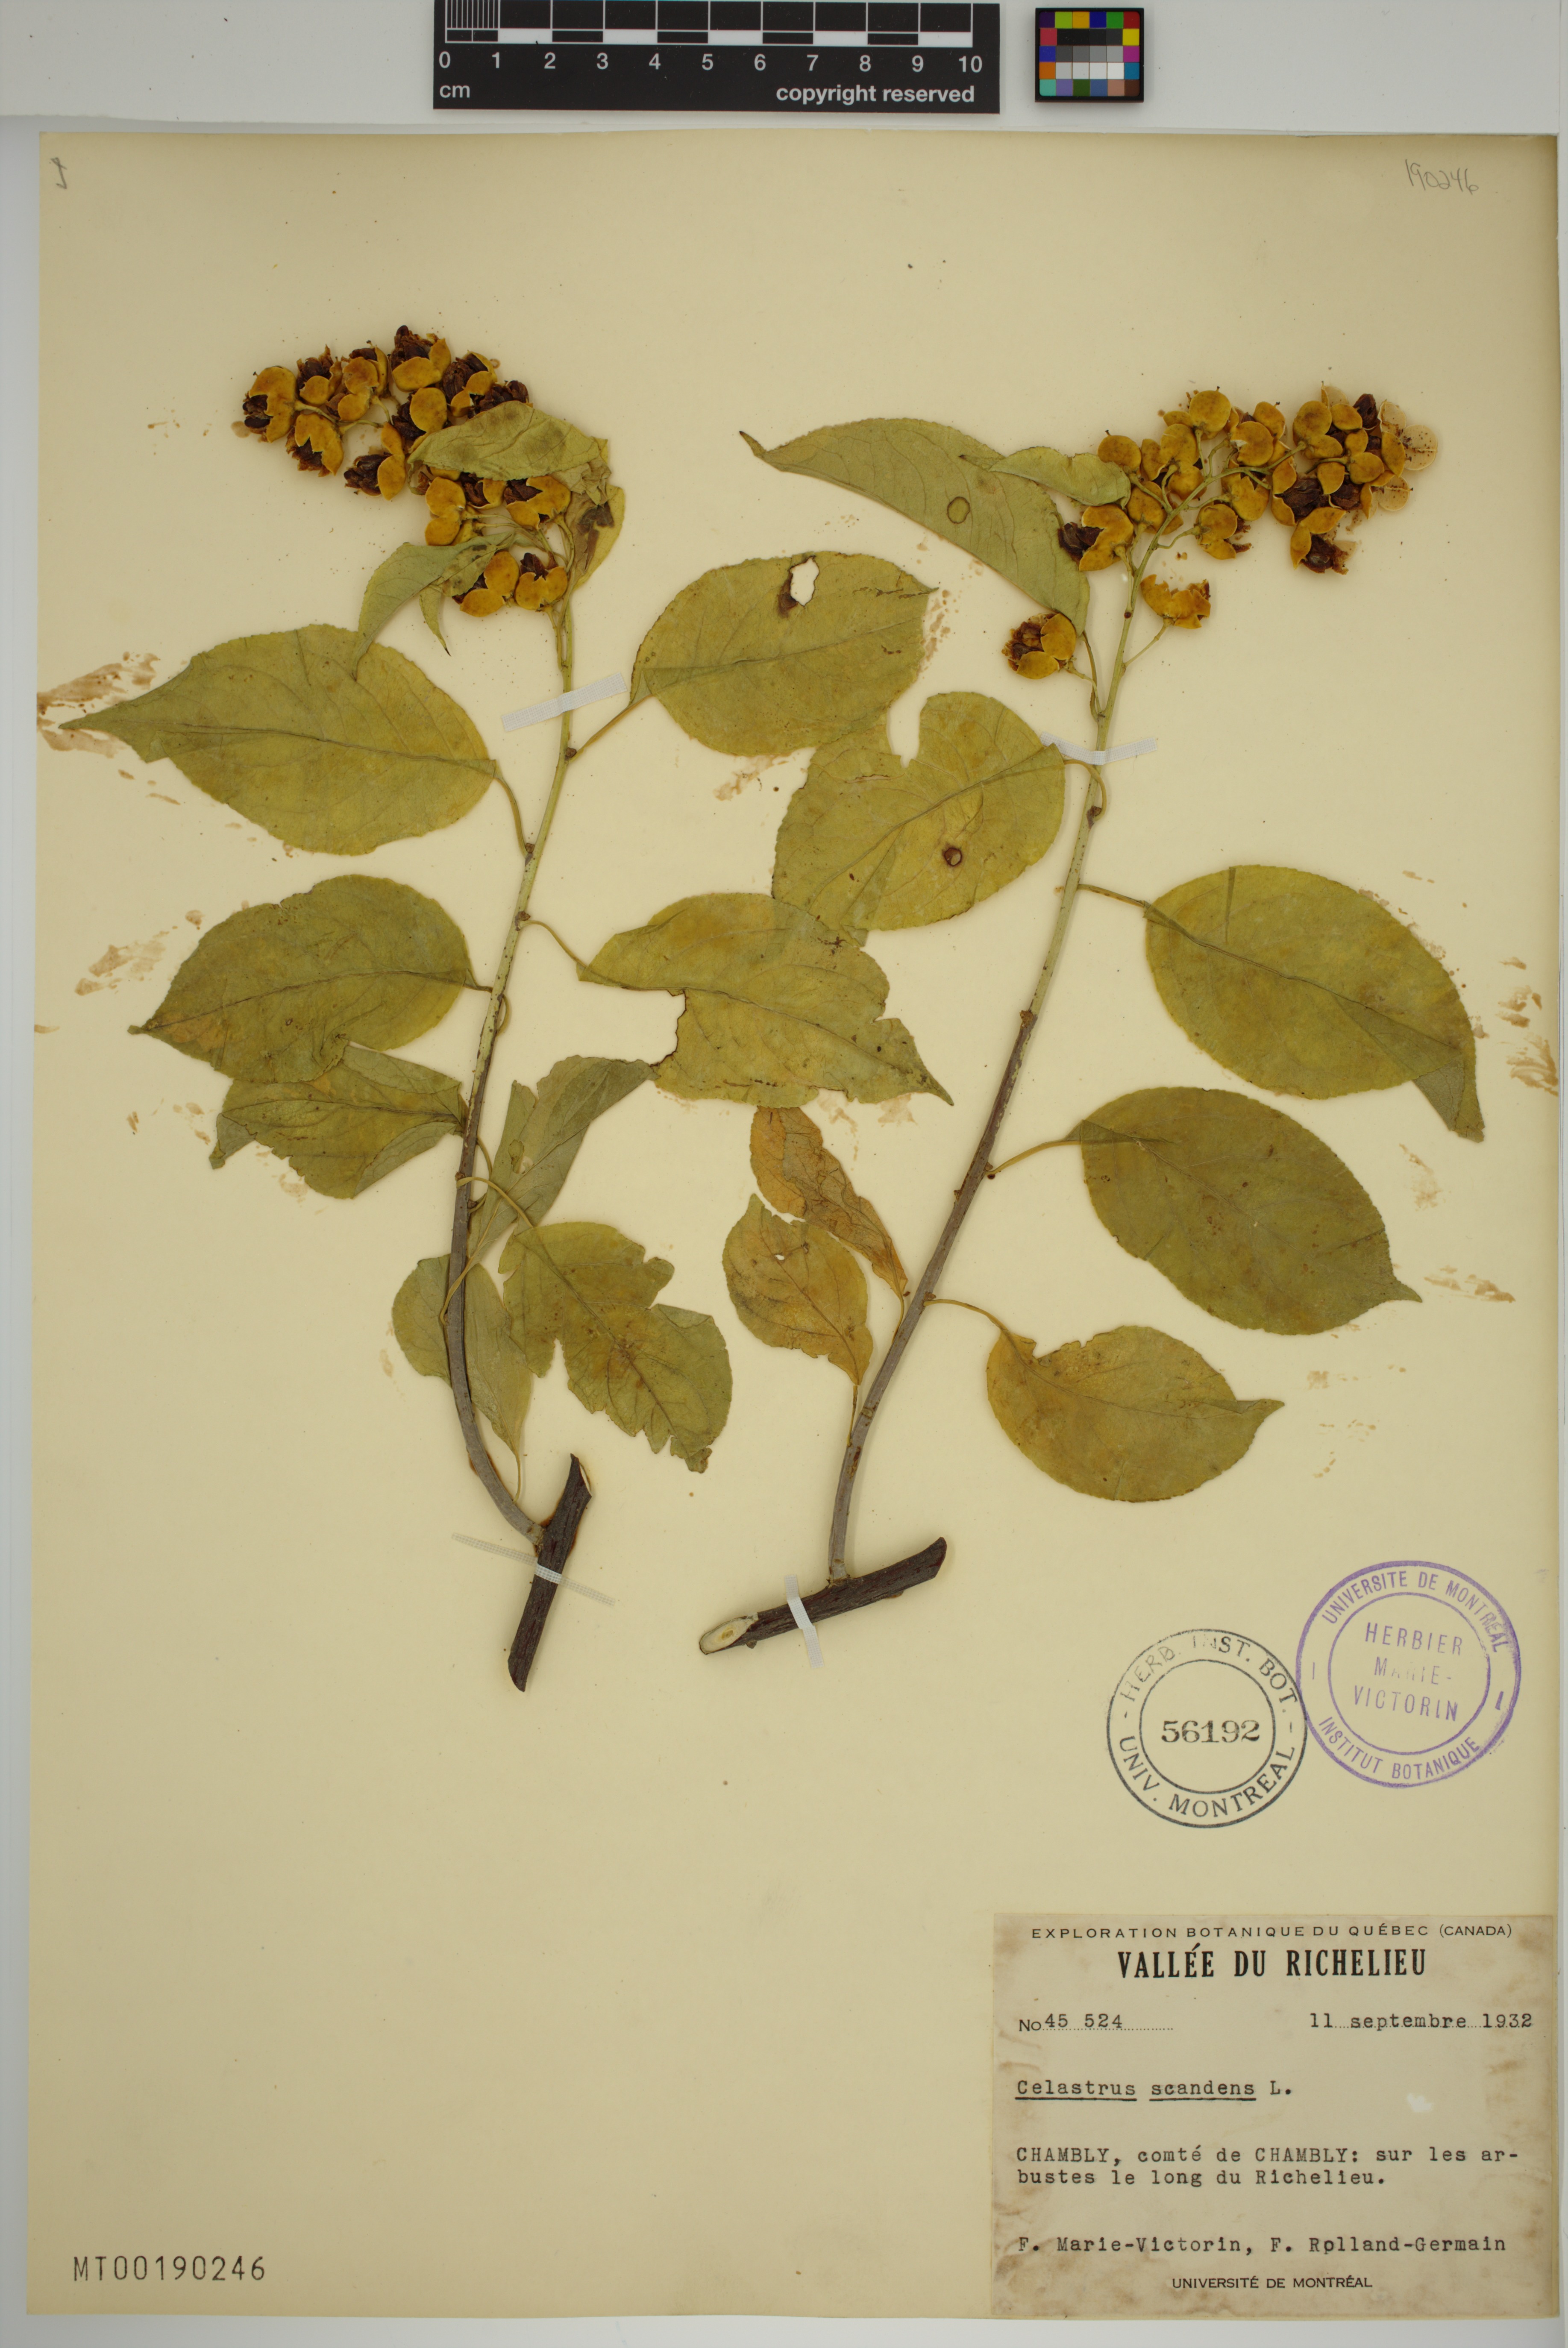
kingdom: Plantae
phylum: Tracheophyta
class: Magnoliopsida
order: Celastrales
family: Celastraceae
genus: Celastrus
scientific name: Celastrus scandens
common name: American bittersweet
